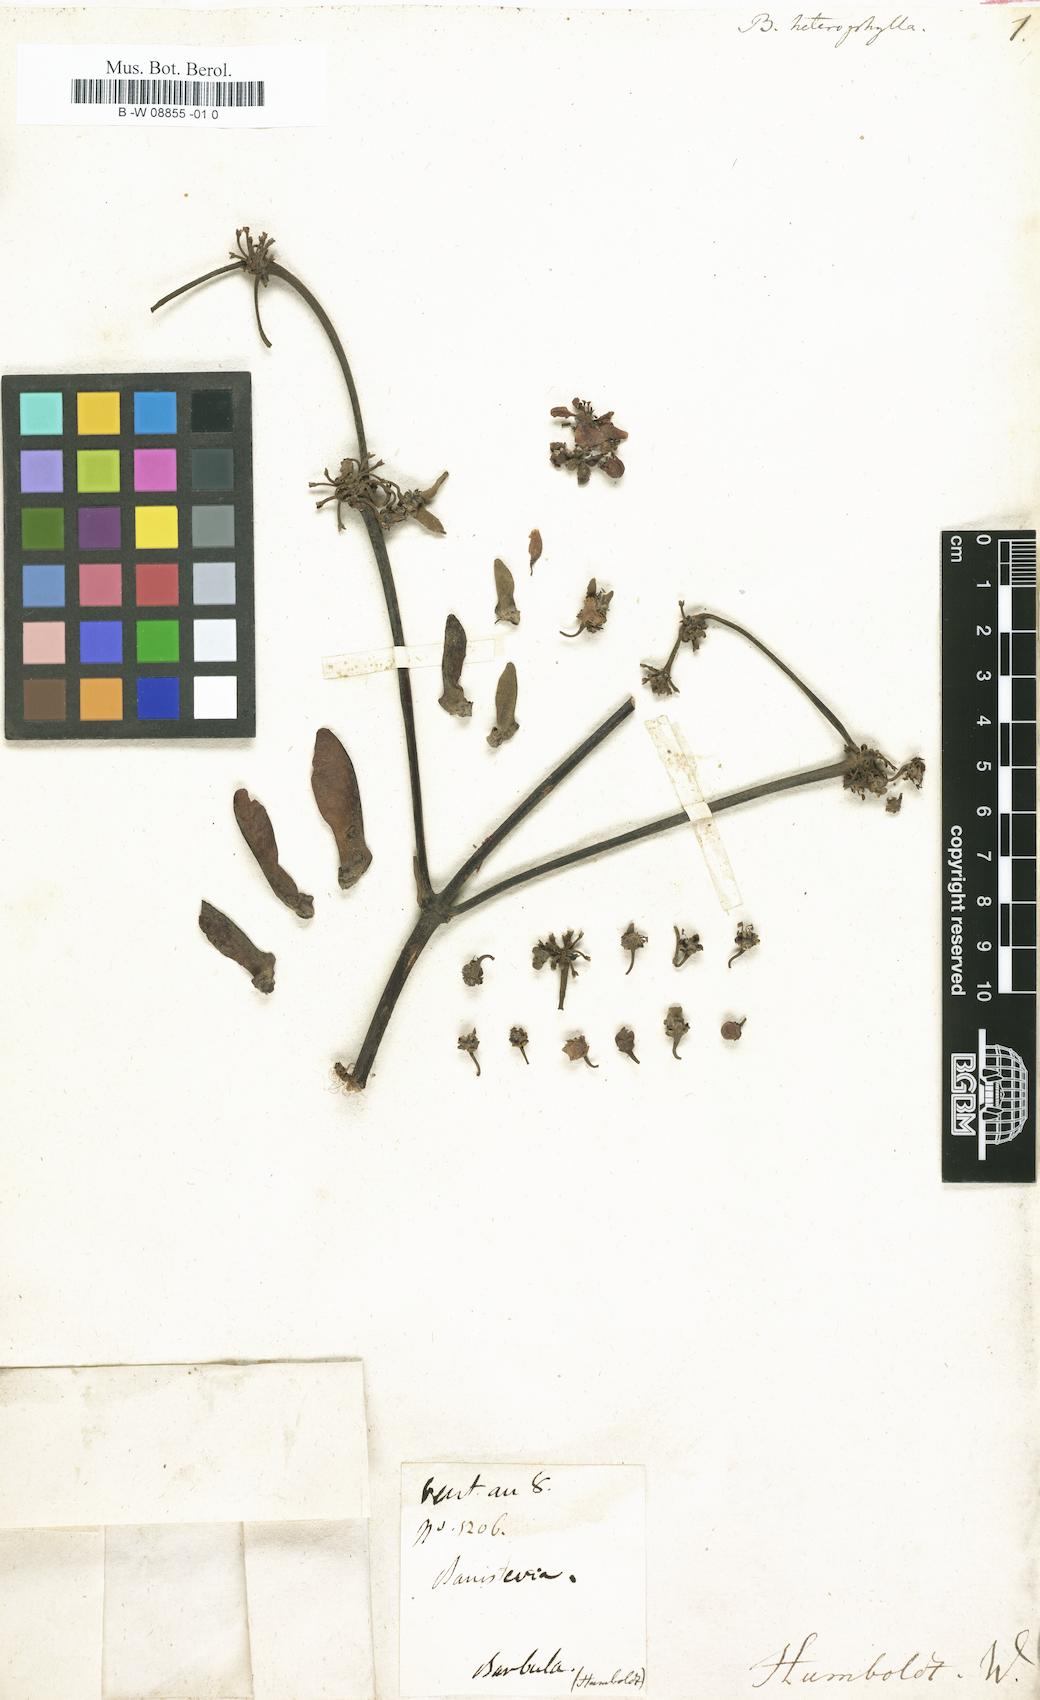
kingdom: Plantae
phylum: Tracheophyta
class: Magnoliopsida
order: Malpighiales
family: Malpighiaceae
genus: Stigmaphyllon
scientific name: Stigmaphyllon
